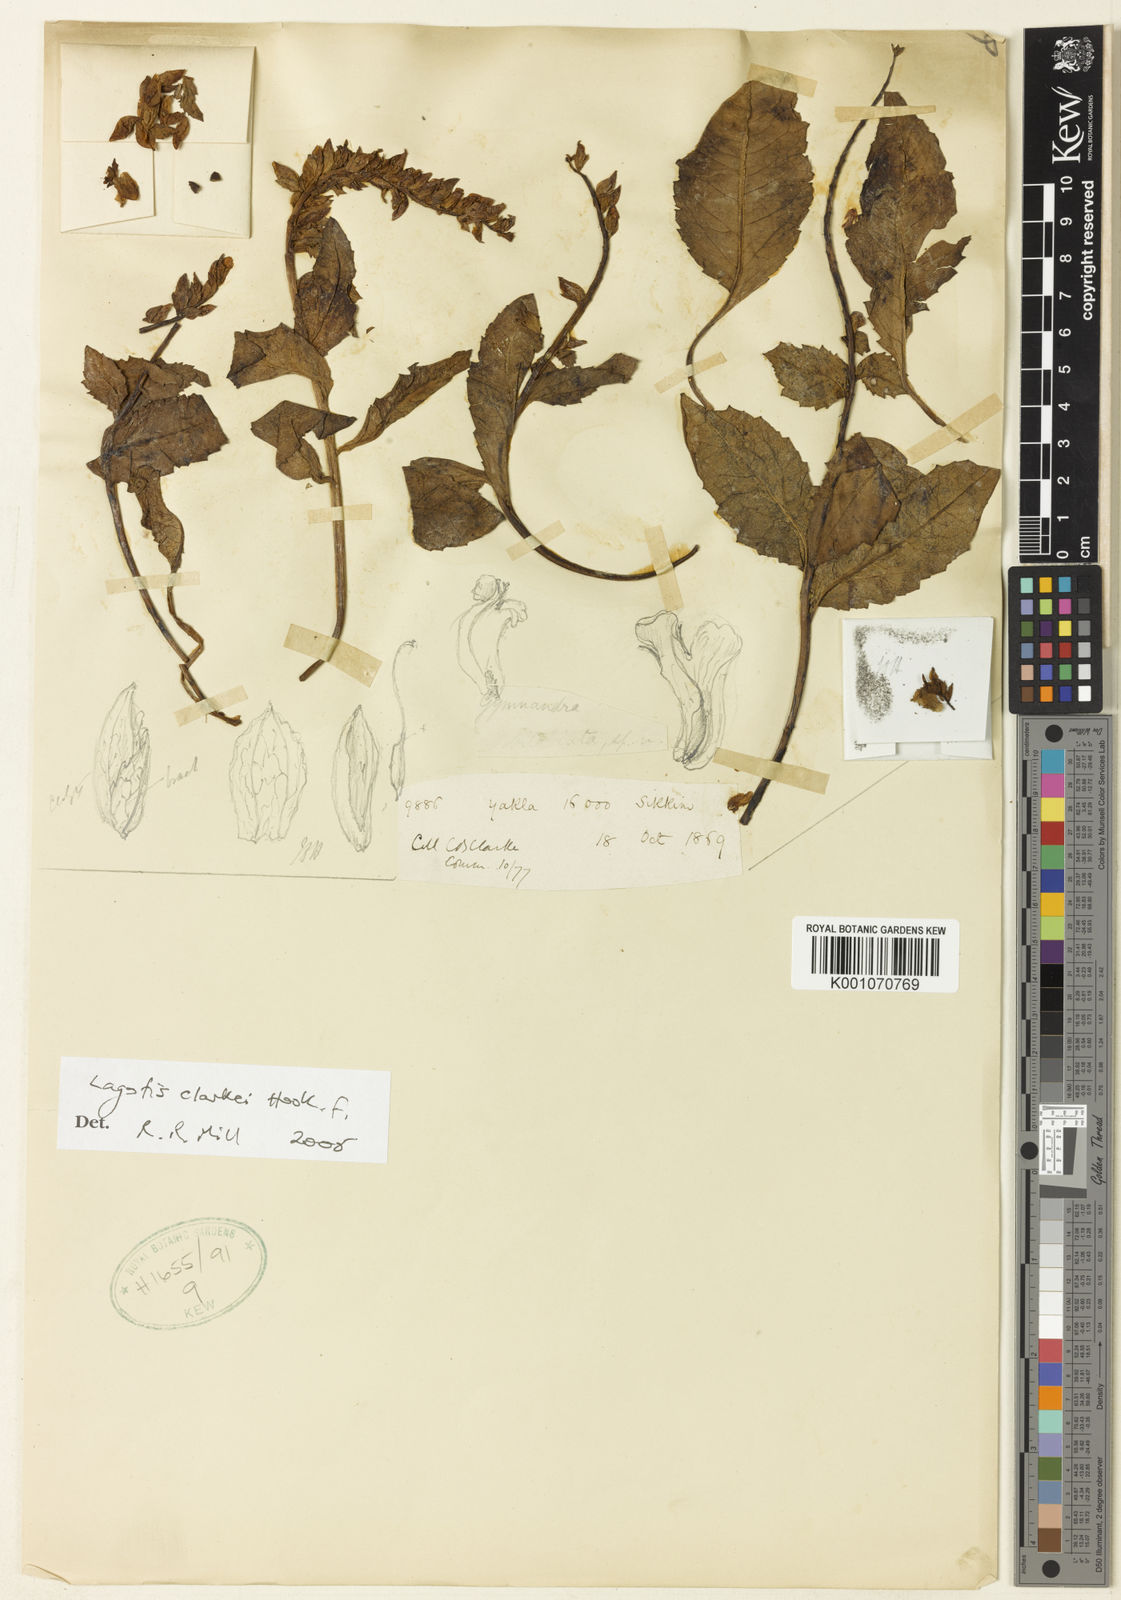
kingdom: Plantae
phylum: Tracheophyta
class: Magnoliopsida
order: Lamiales
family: Plantaginaceae
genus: Lagotis
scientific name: Lagotis clarkei
